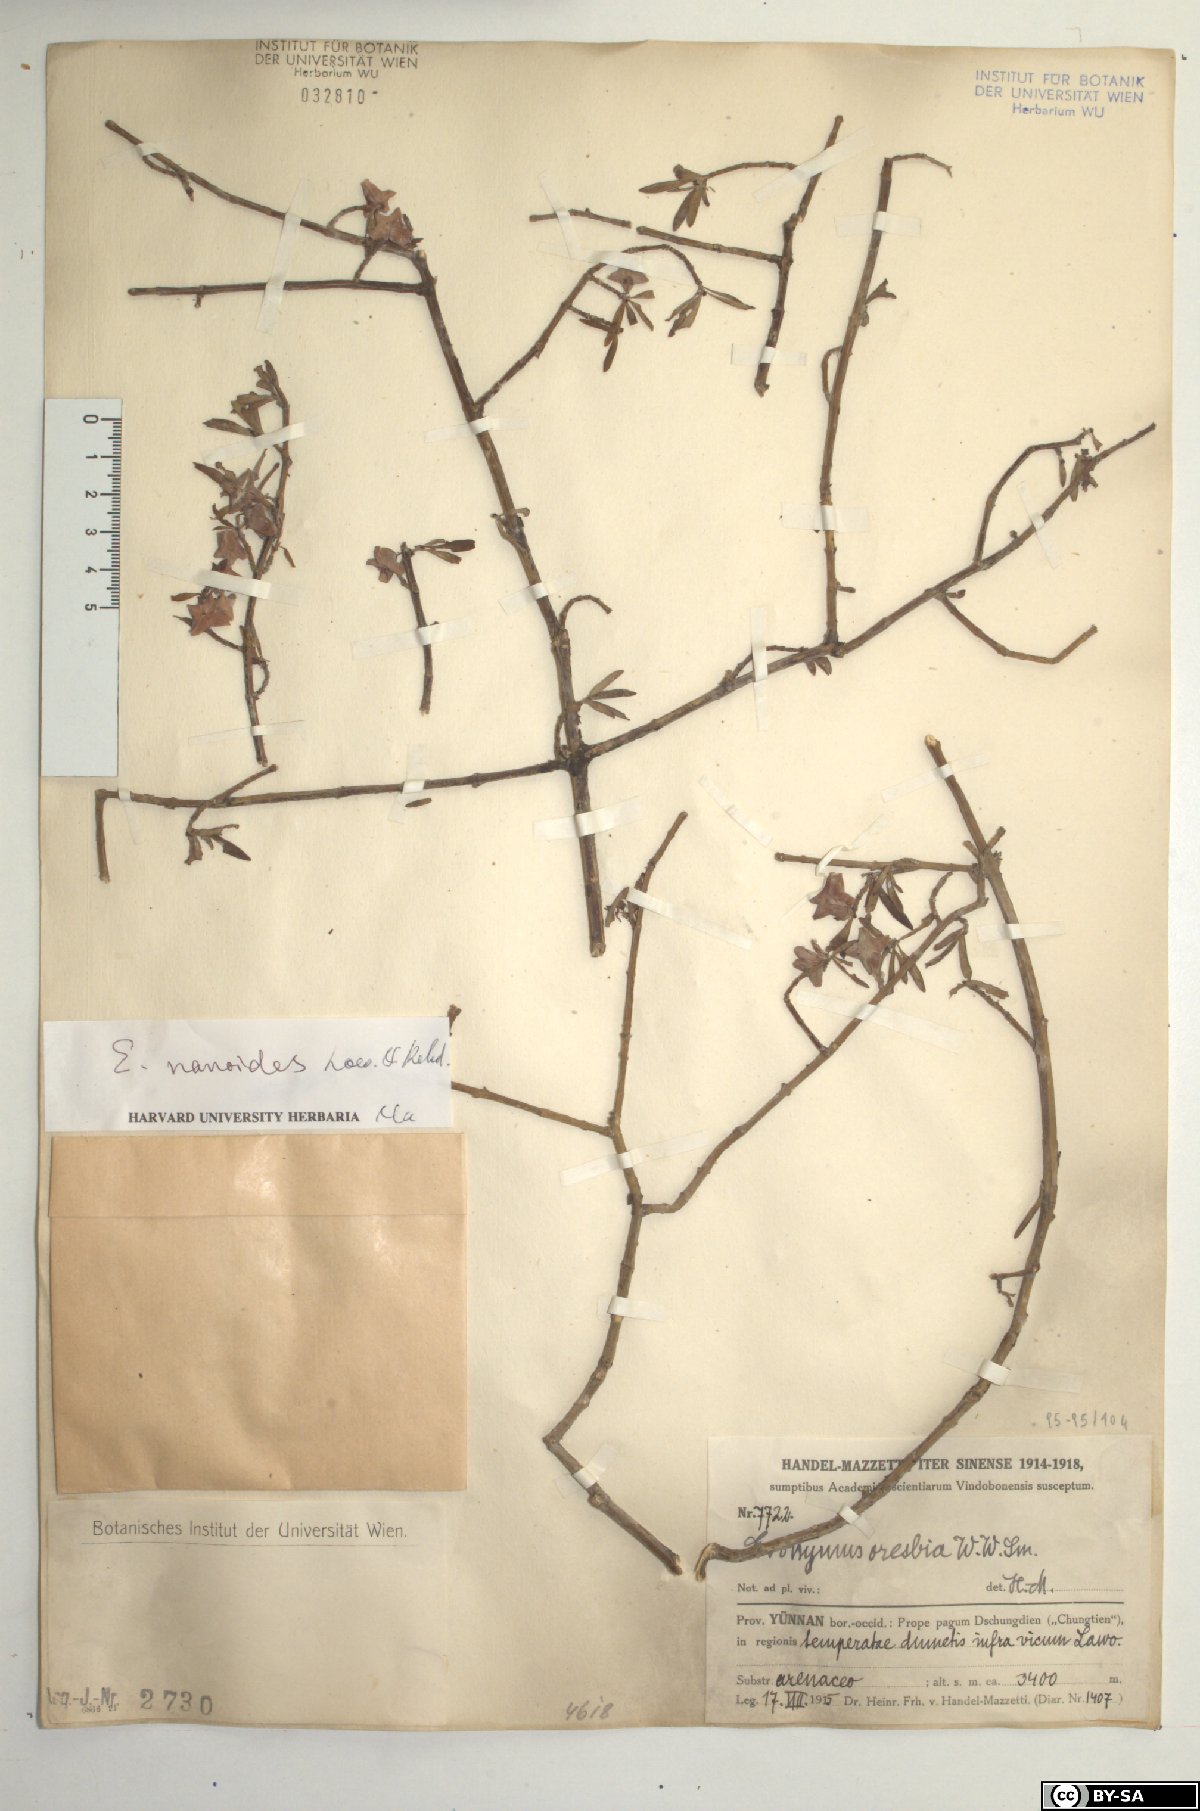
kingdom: Plantae
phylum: Tracheophyta
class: Magnoliopsida
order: Celastrales
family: Celastraceae
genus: Euonymus
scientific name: Euonymus nanoides
